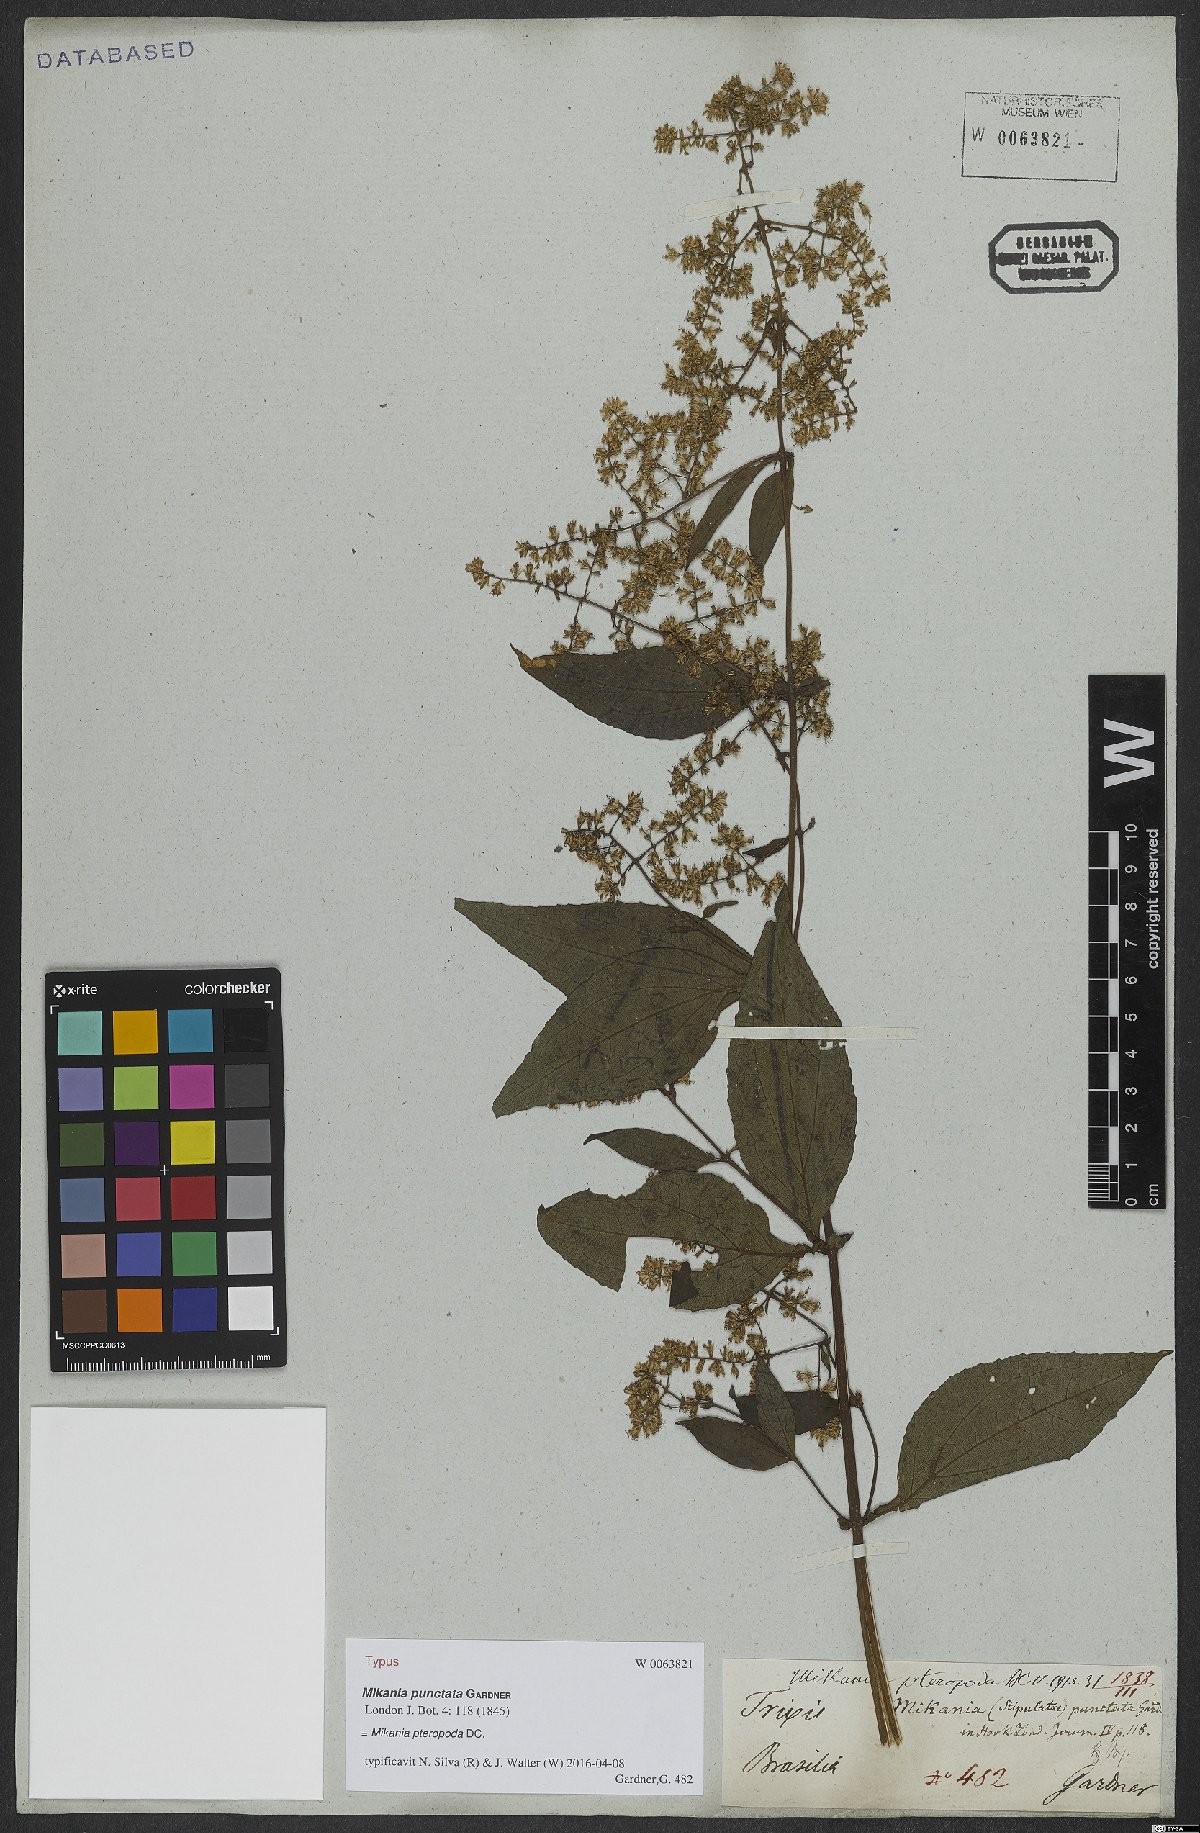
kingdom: Plantae
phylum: Tracheophyta
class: Magnoliopsida
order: Asterales
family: Asteraceae
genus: Mikania
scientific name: Mikania pteropoda
